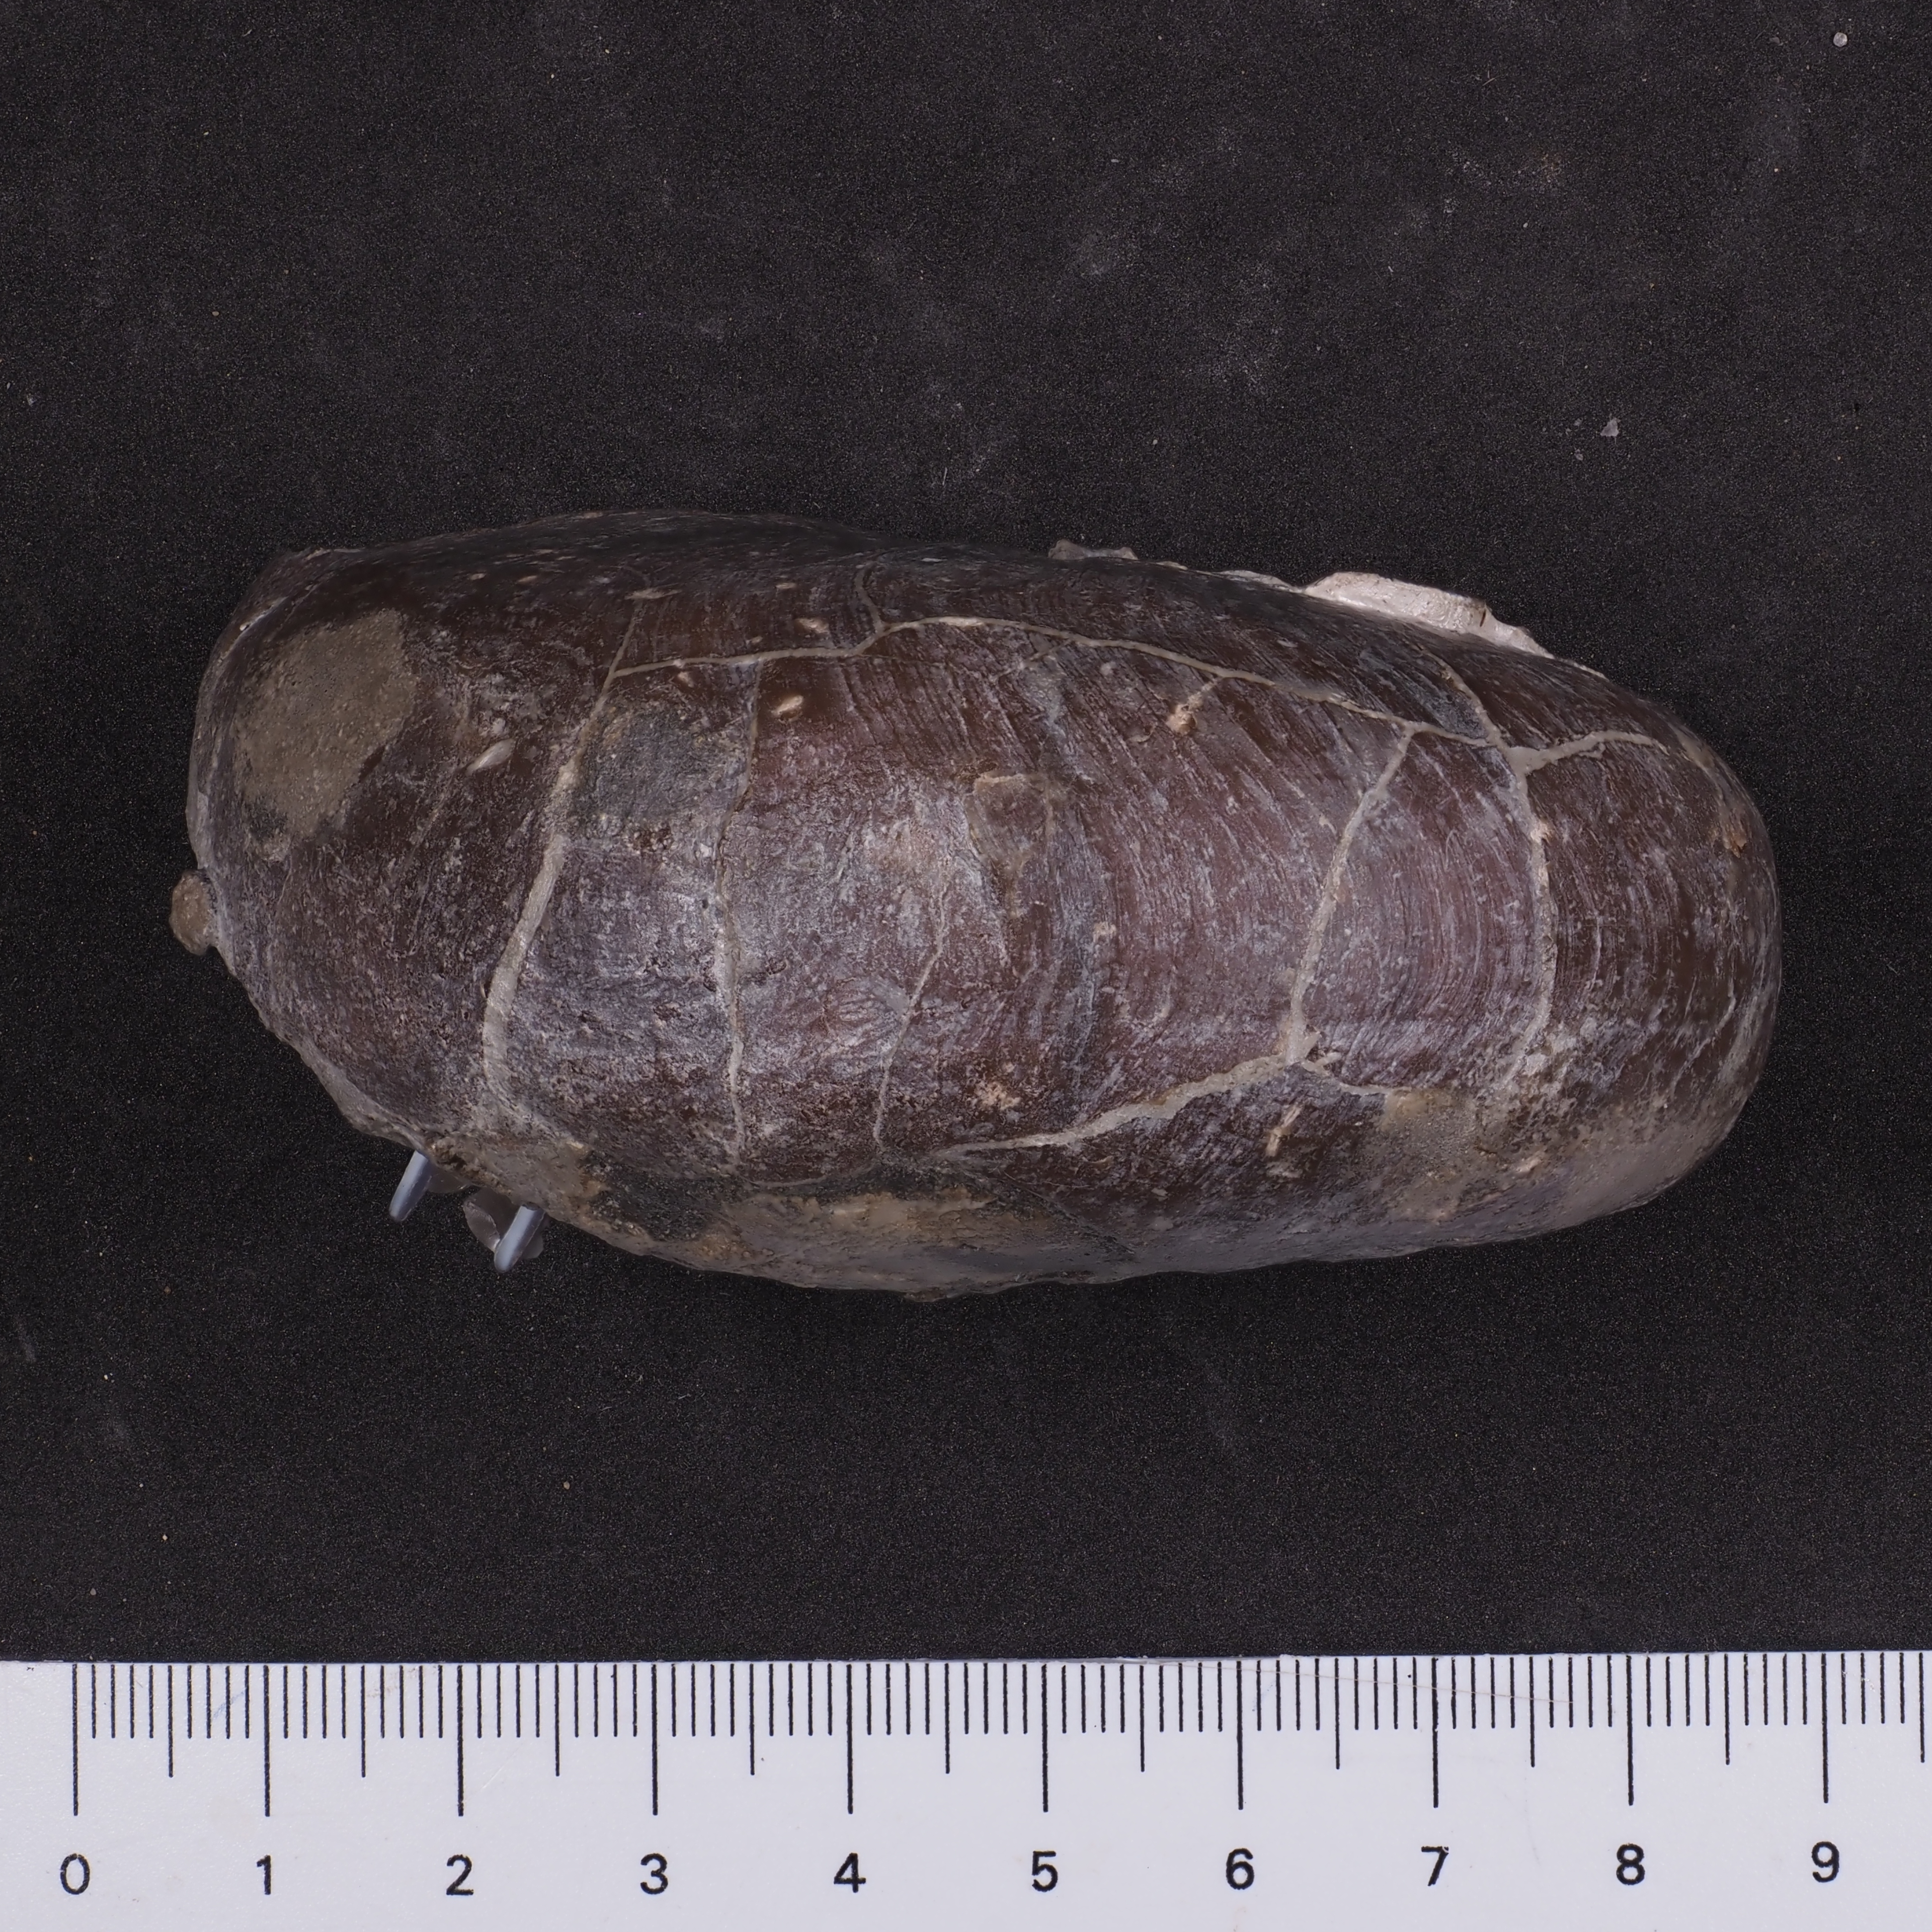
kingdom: Animalia
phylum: Mollusca
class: Cephalopoda
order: Nautilida
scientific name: Nautilida
